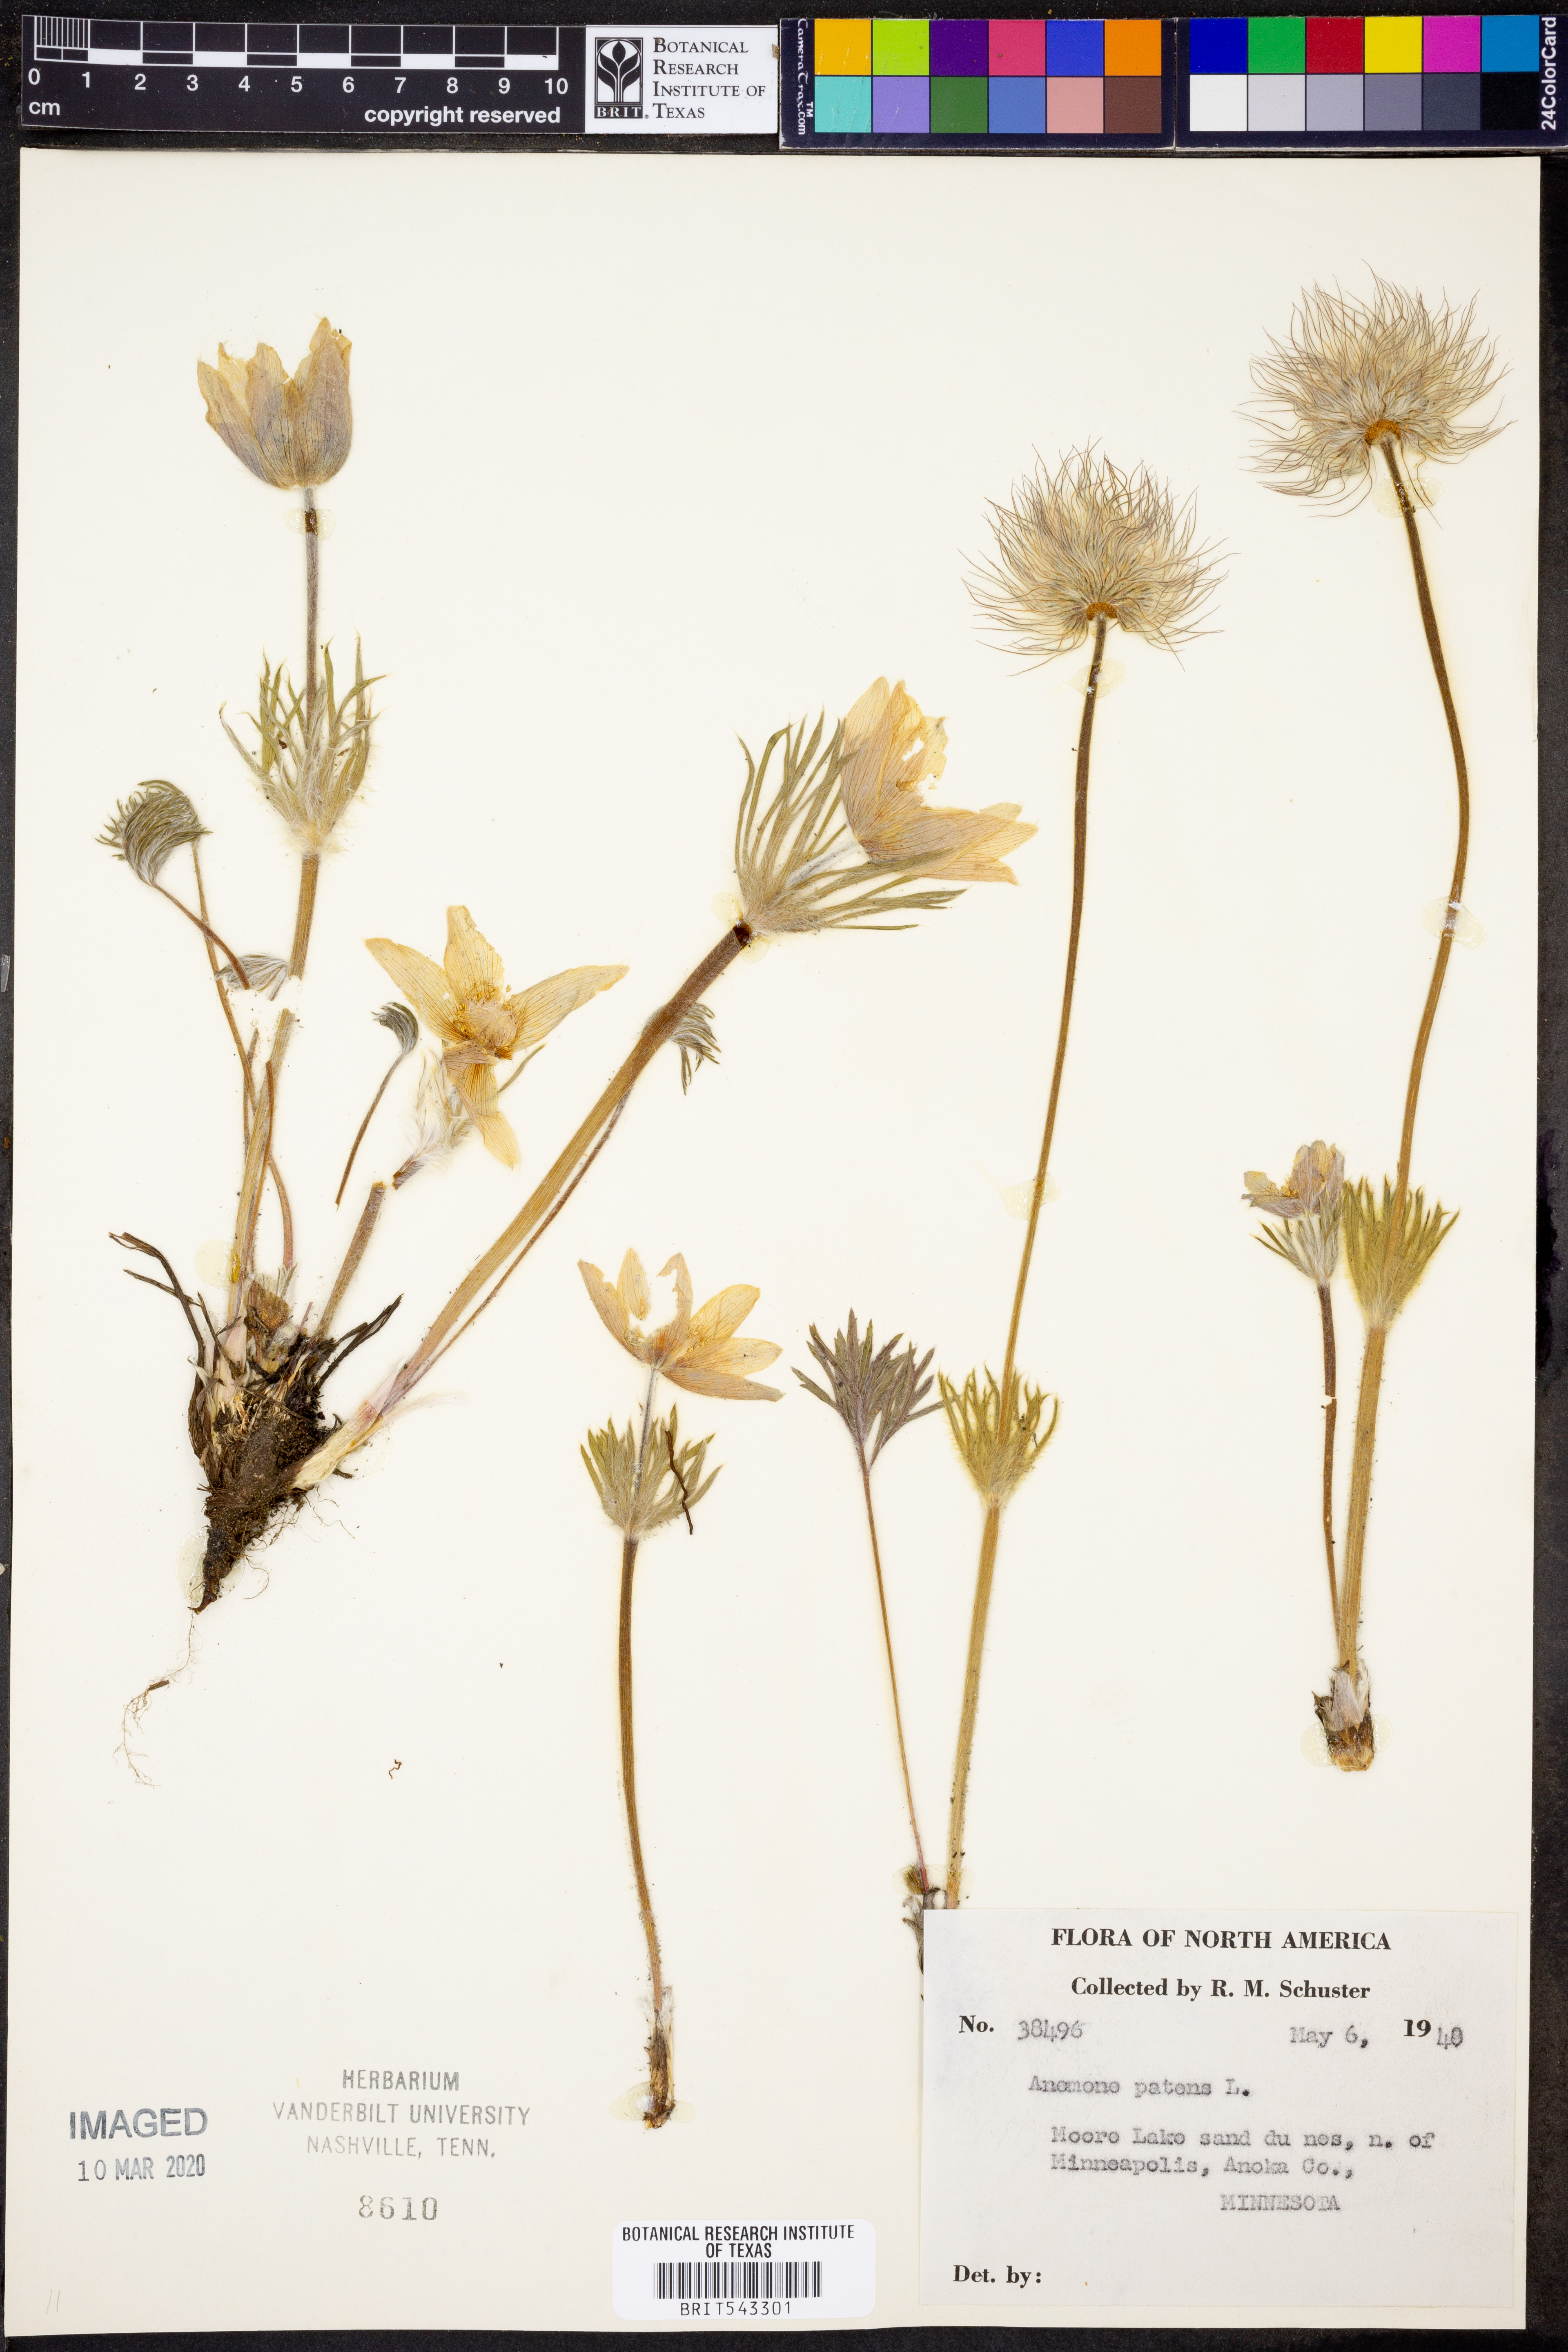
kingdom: Plantae
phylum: Tracheophyta
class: Magnoliopsida
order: Ranunculales
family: Ranunculaceae
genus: Pulsatilla
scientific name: Pulsatilla patens
